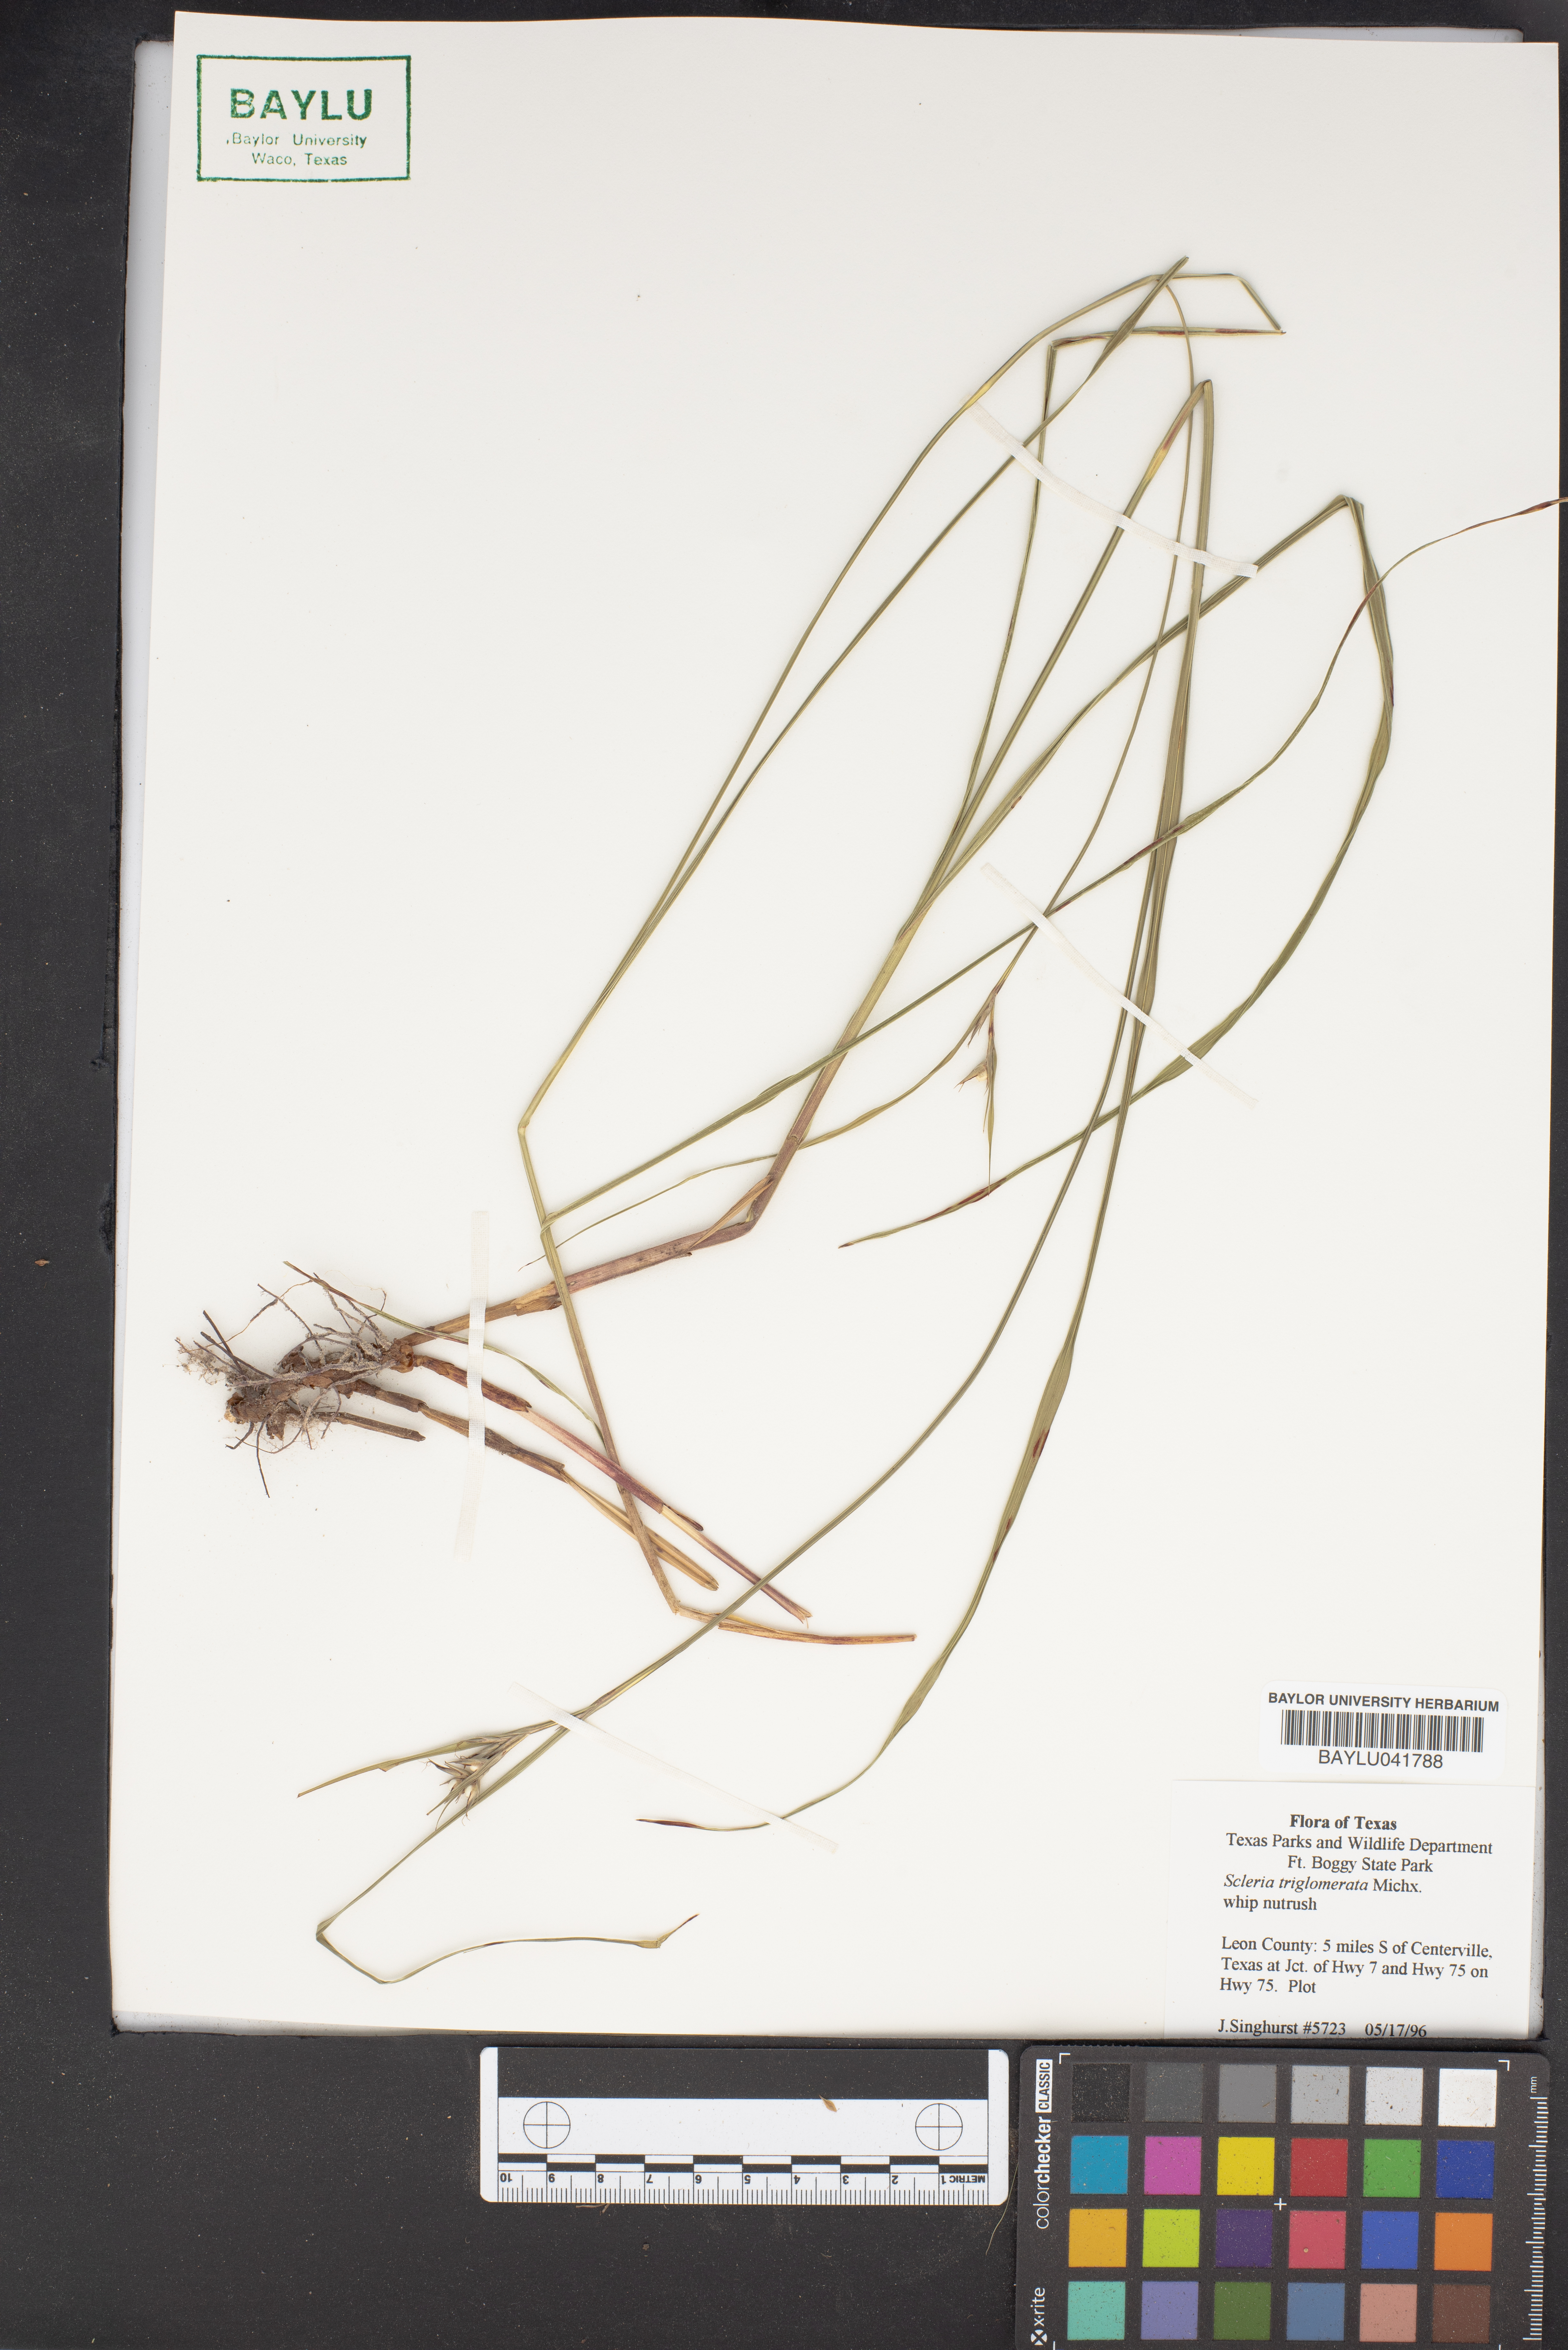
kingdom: Plantae
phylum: Tracheophyta
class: Liliopsida
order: Poales
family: Cyperaceae
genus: Scleria
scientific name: Scleria triglomerata
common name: Whip nutrush
